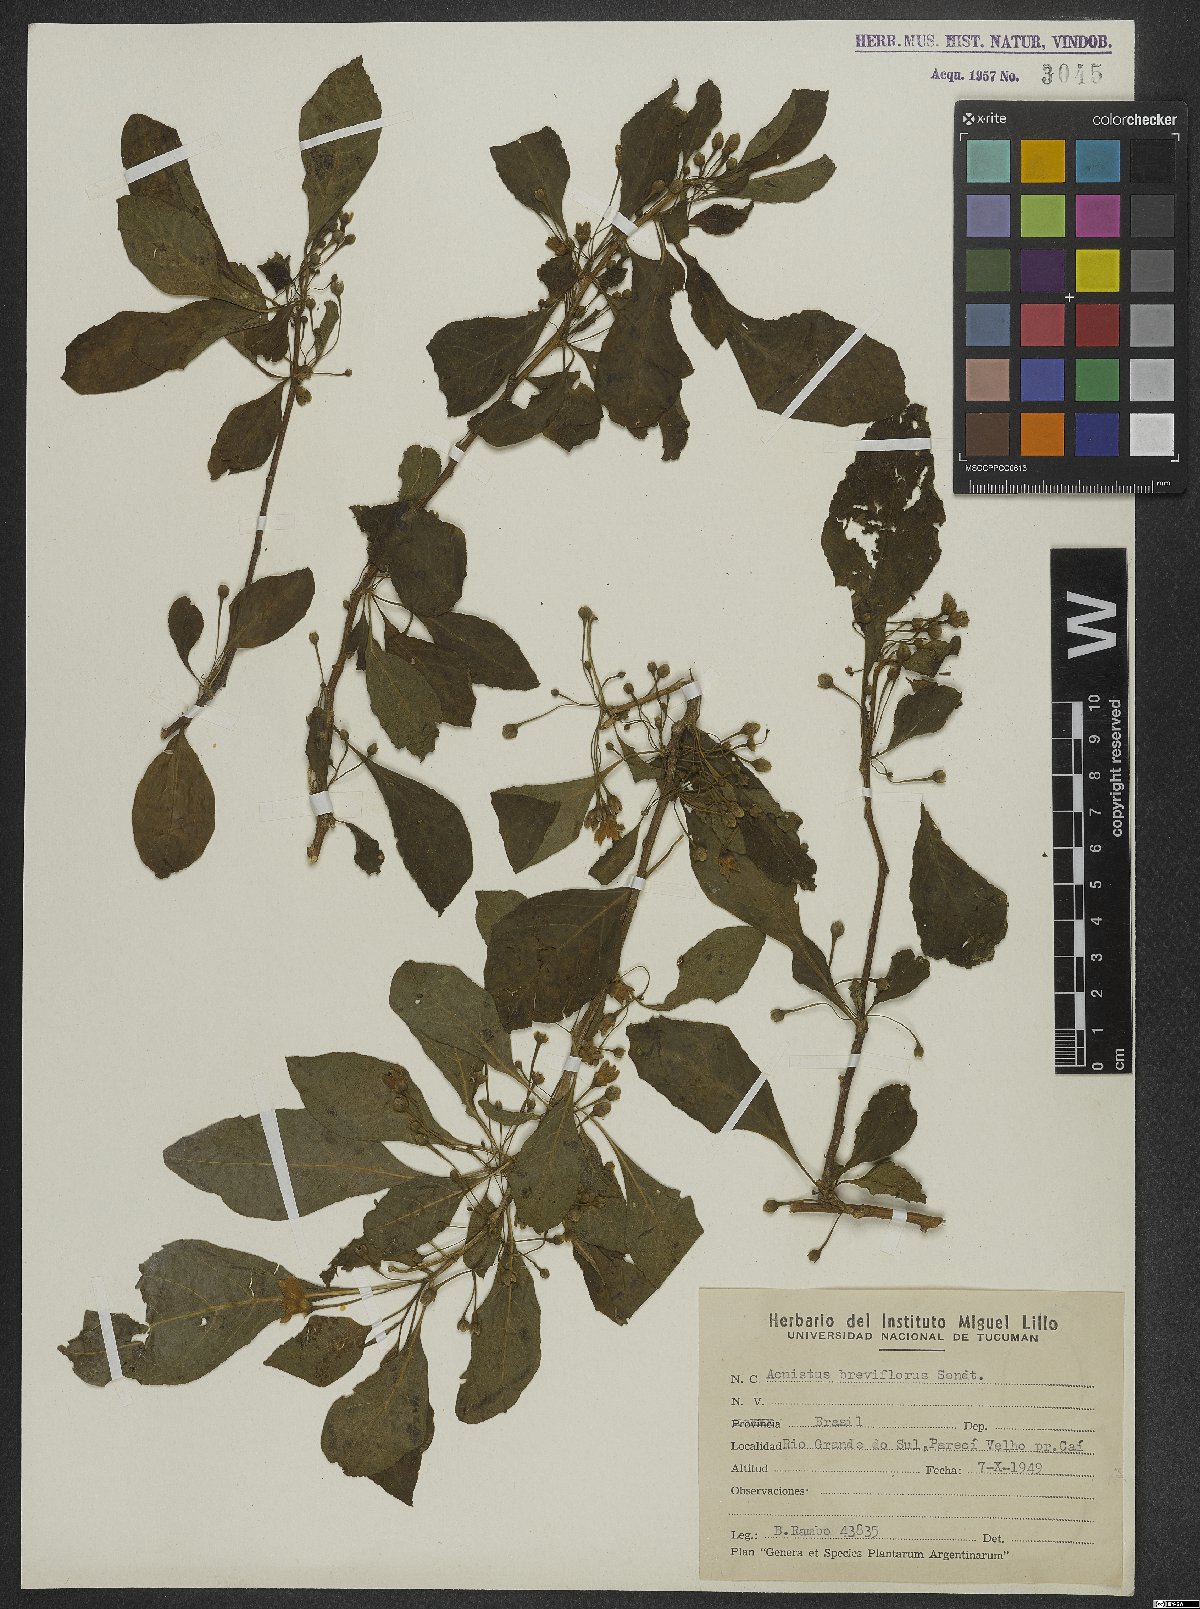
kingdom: Plantae
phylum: Tracheophyta
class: Magnoliopsida
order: Solanales
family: Solanaceae
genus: Vassobia
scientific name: Vassobia breviflora
